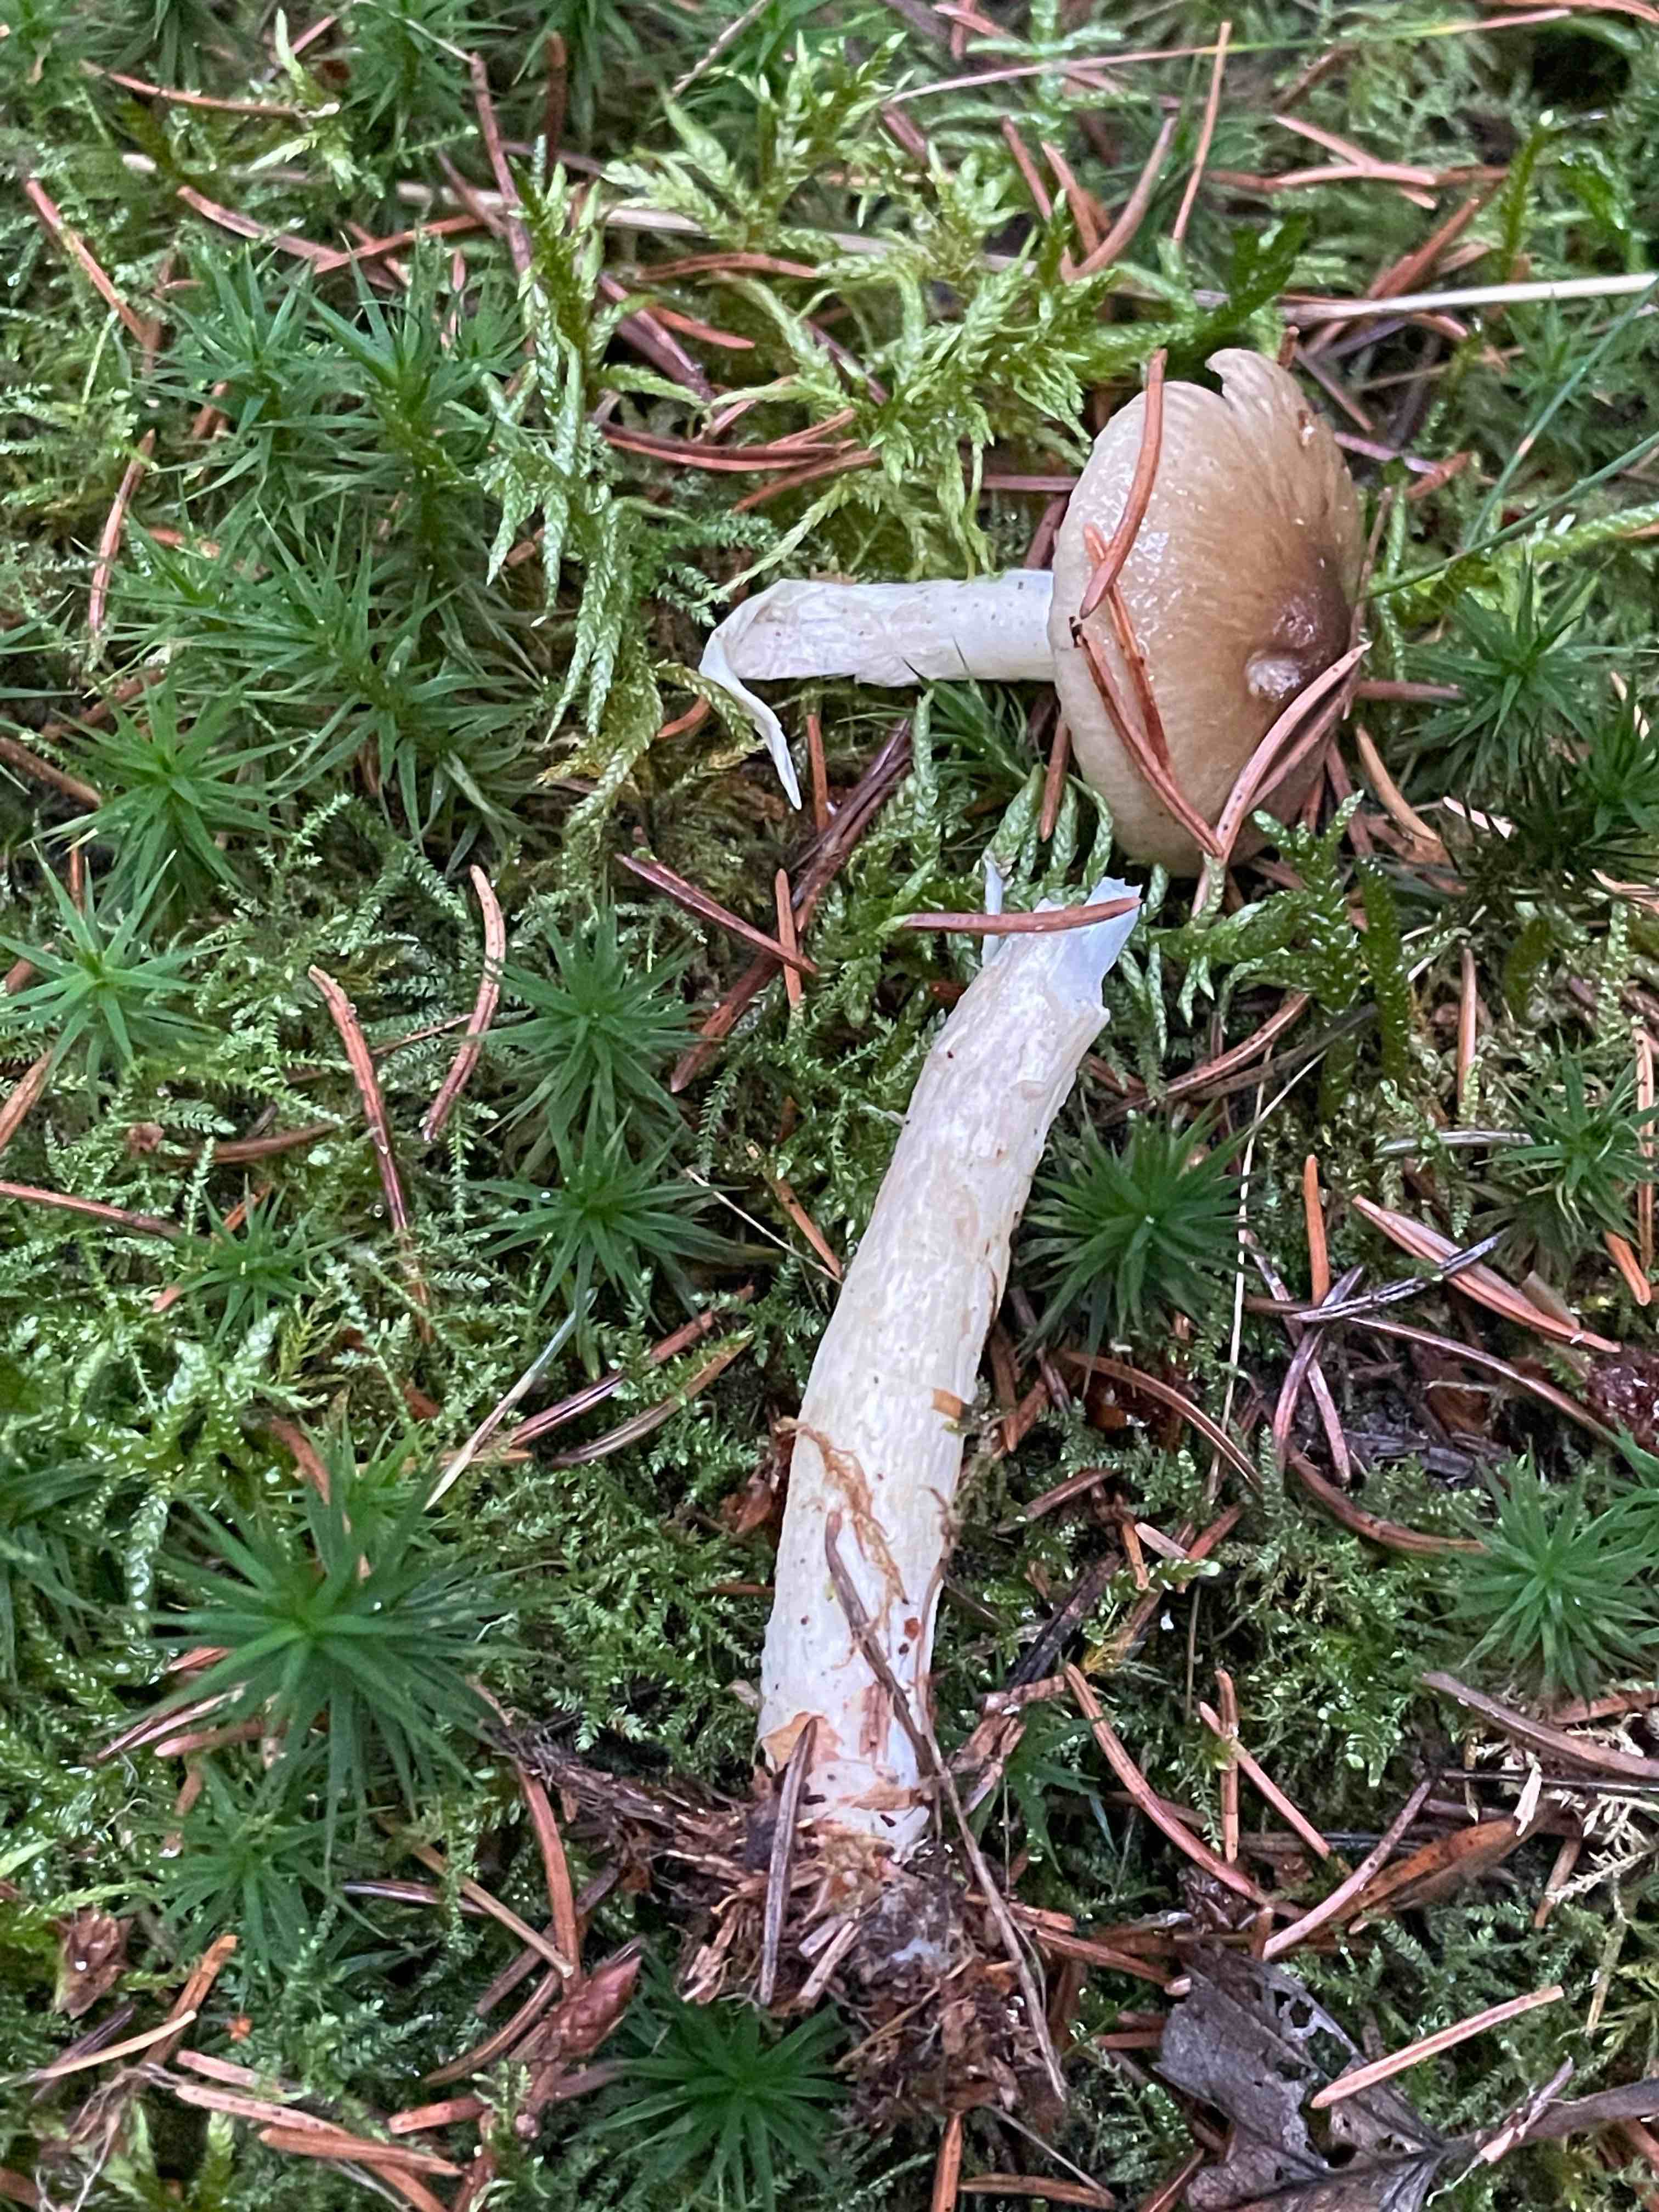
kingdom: Fungi
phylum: Basidiomycota
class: Agaricomycetes
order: Agaricales
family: Hygrophoraceae
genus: Hygrophorus
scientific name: Hygrophorus olivaceoalbus
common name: hvidbrun sneglehat
